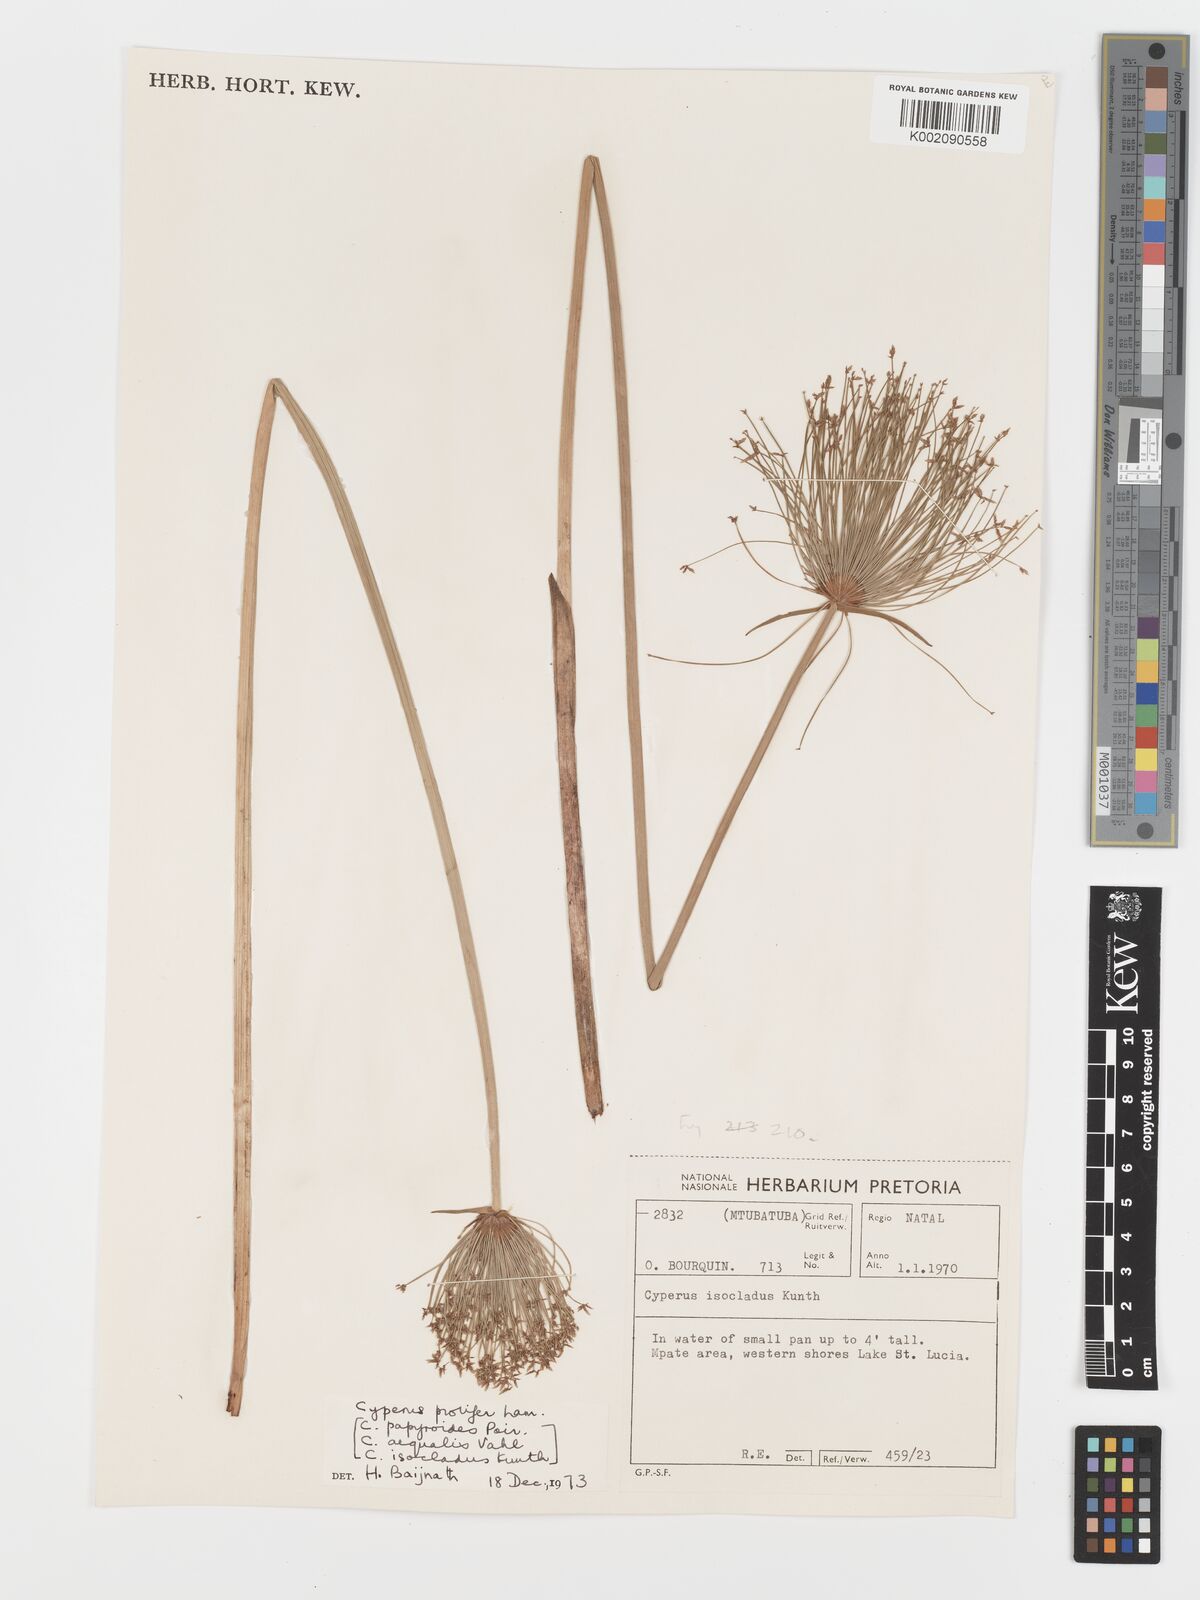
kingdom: Plantae
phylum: Tracheophyta
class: Liliopsida
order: Poales
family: Cyperaceae
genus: Cyperus
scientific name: Cyperus prolifer
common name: Miniature flatsedge
